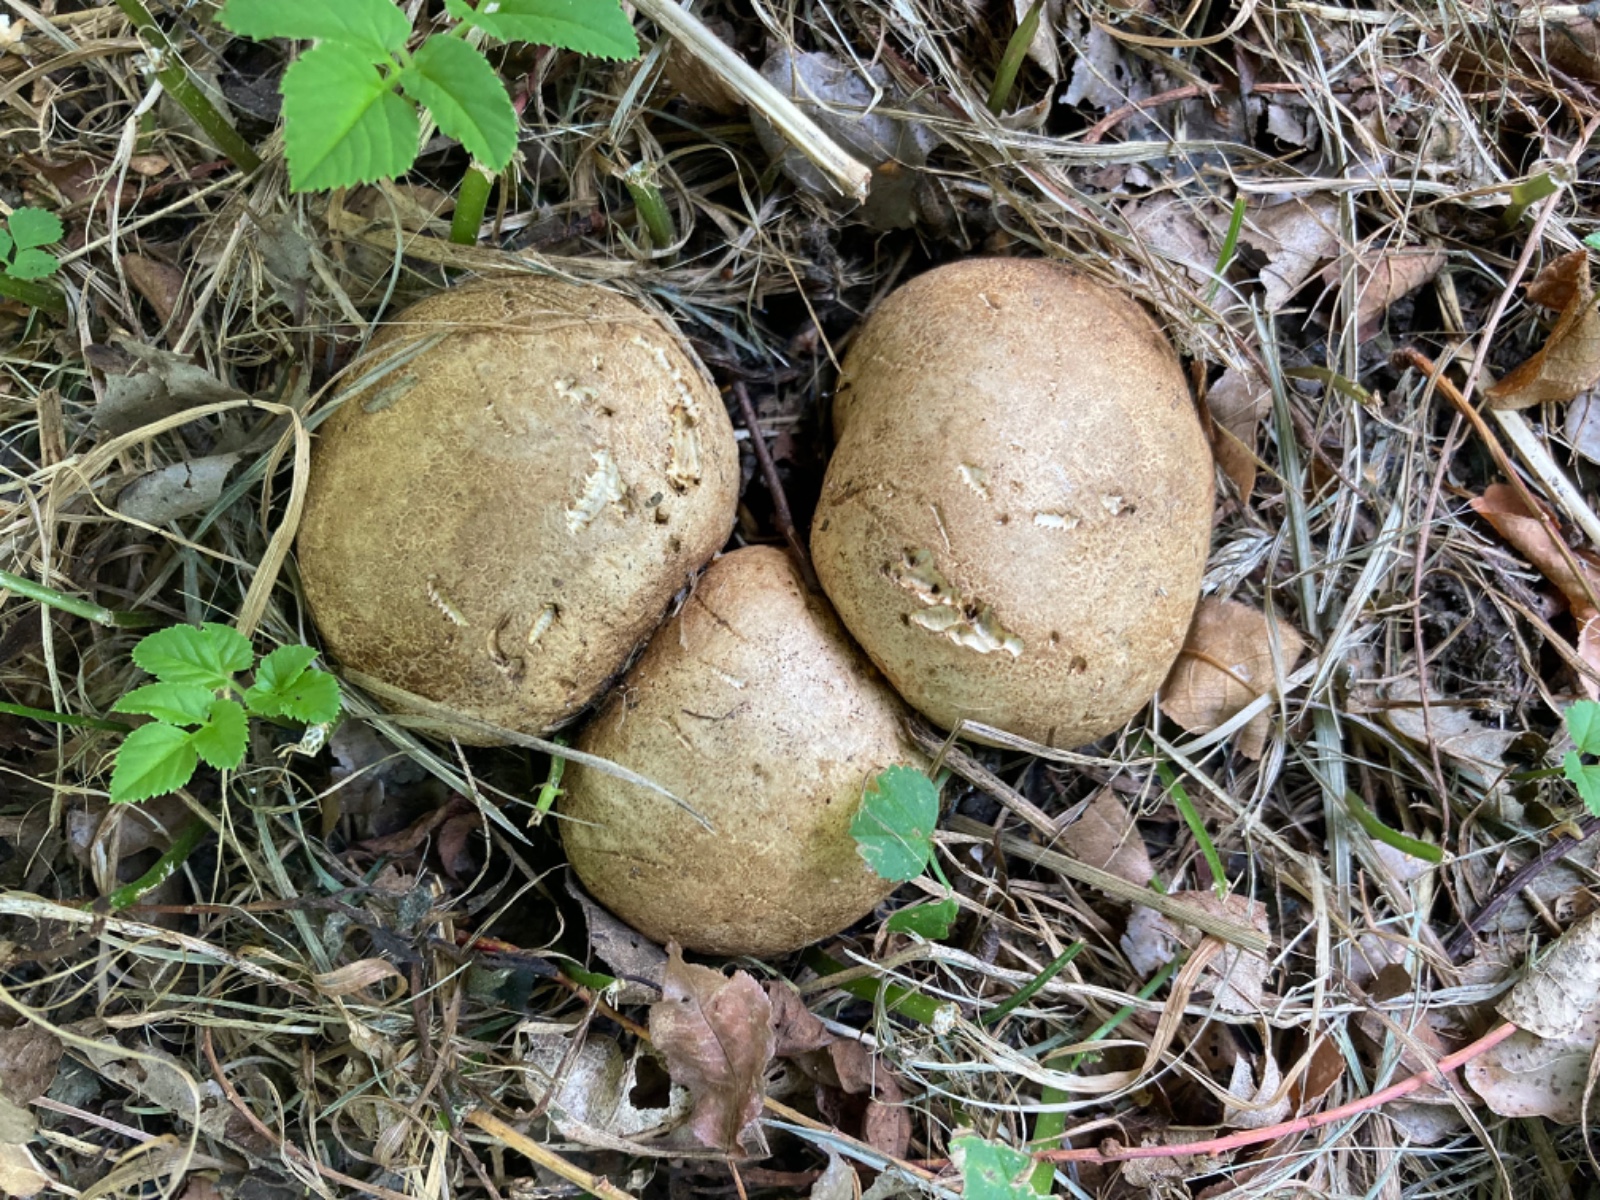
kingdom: Fungi
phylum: Basidiomycota
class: Agaricomycetes
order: Boletales
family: Sclerodermataceae
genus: Scleroderma
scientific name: Scleroderma citrinum
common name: almindelig bruskbold
